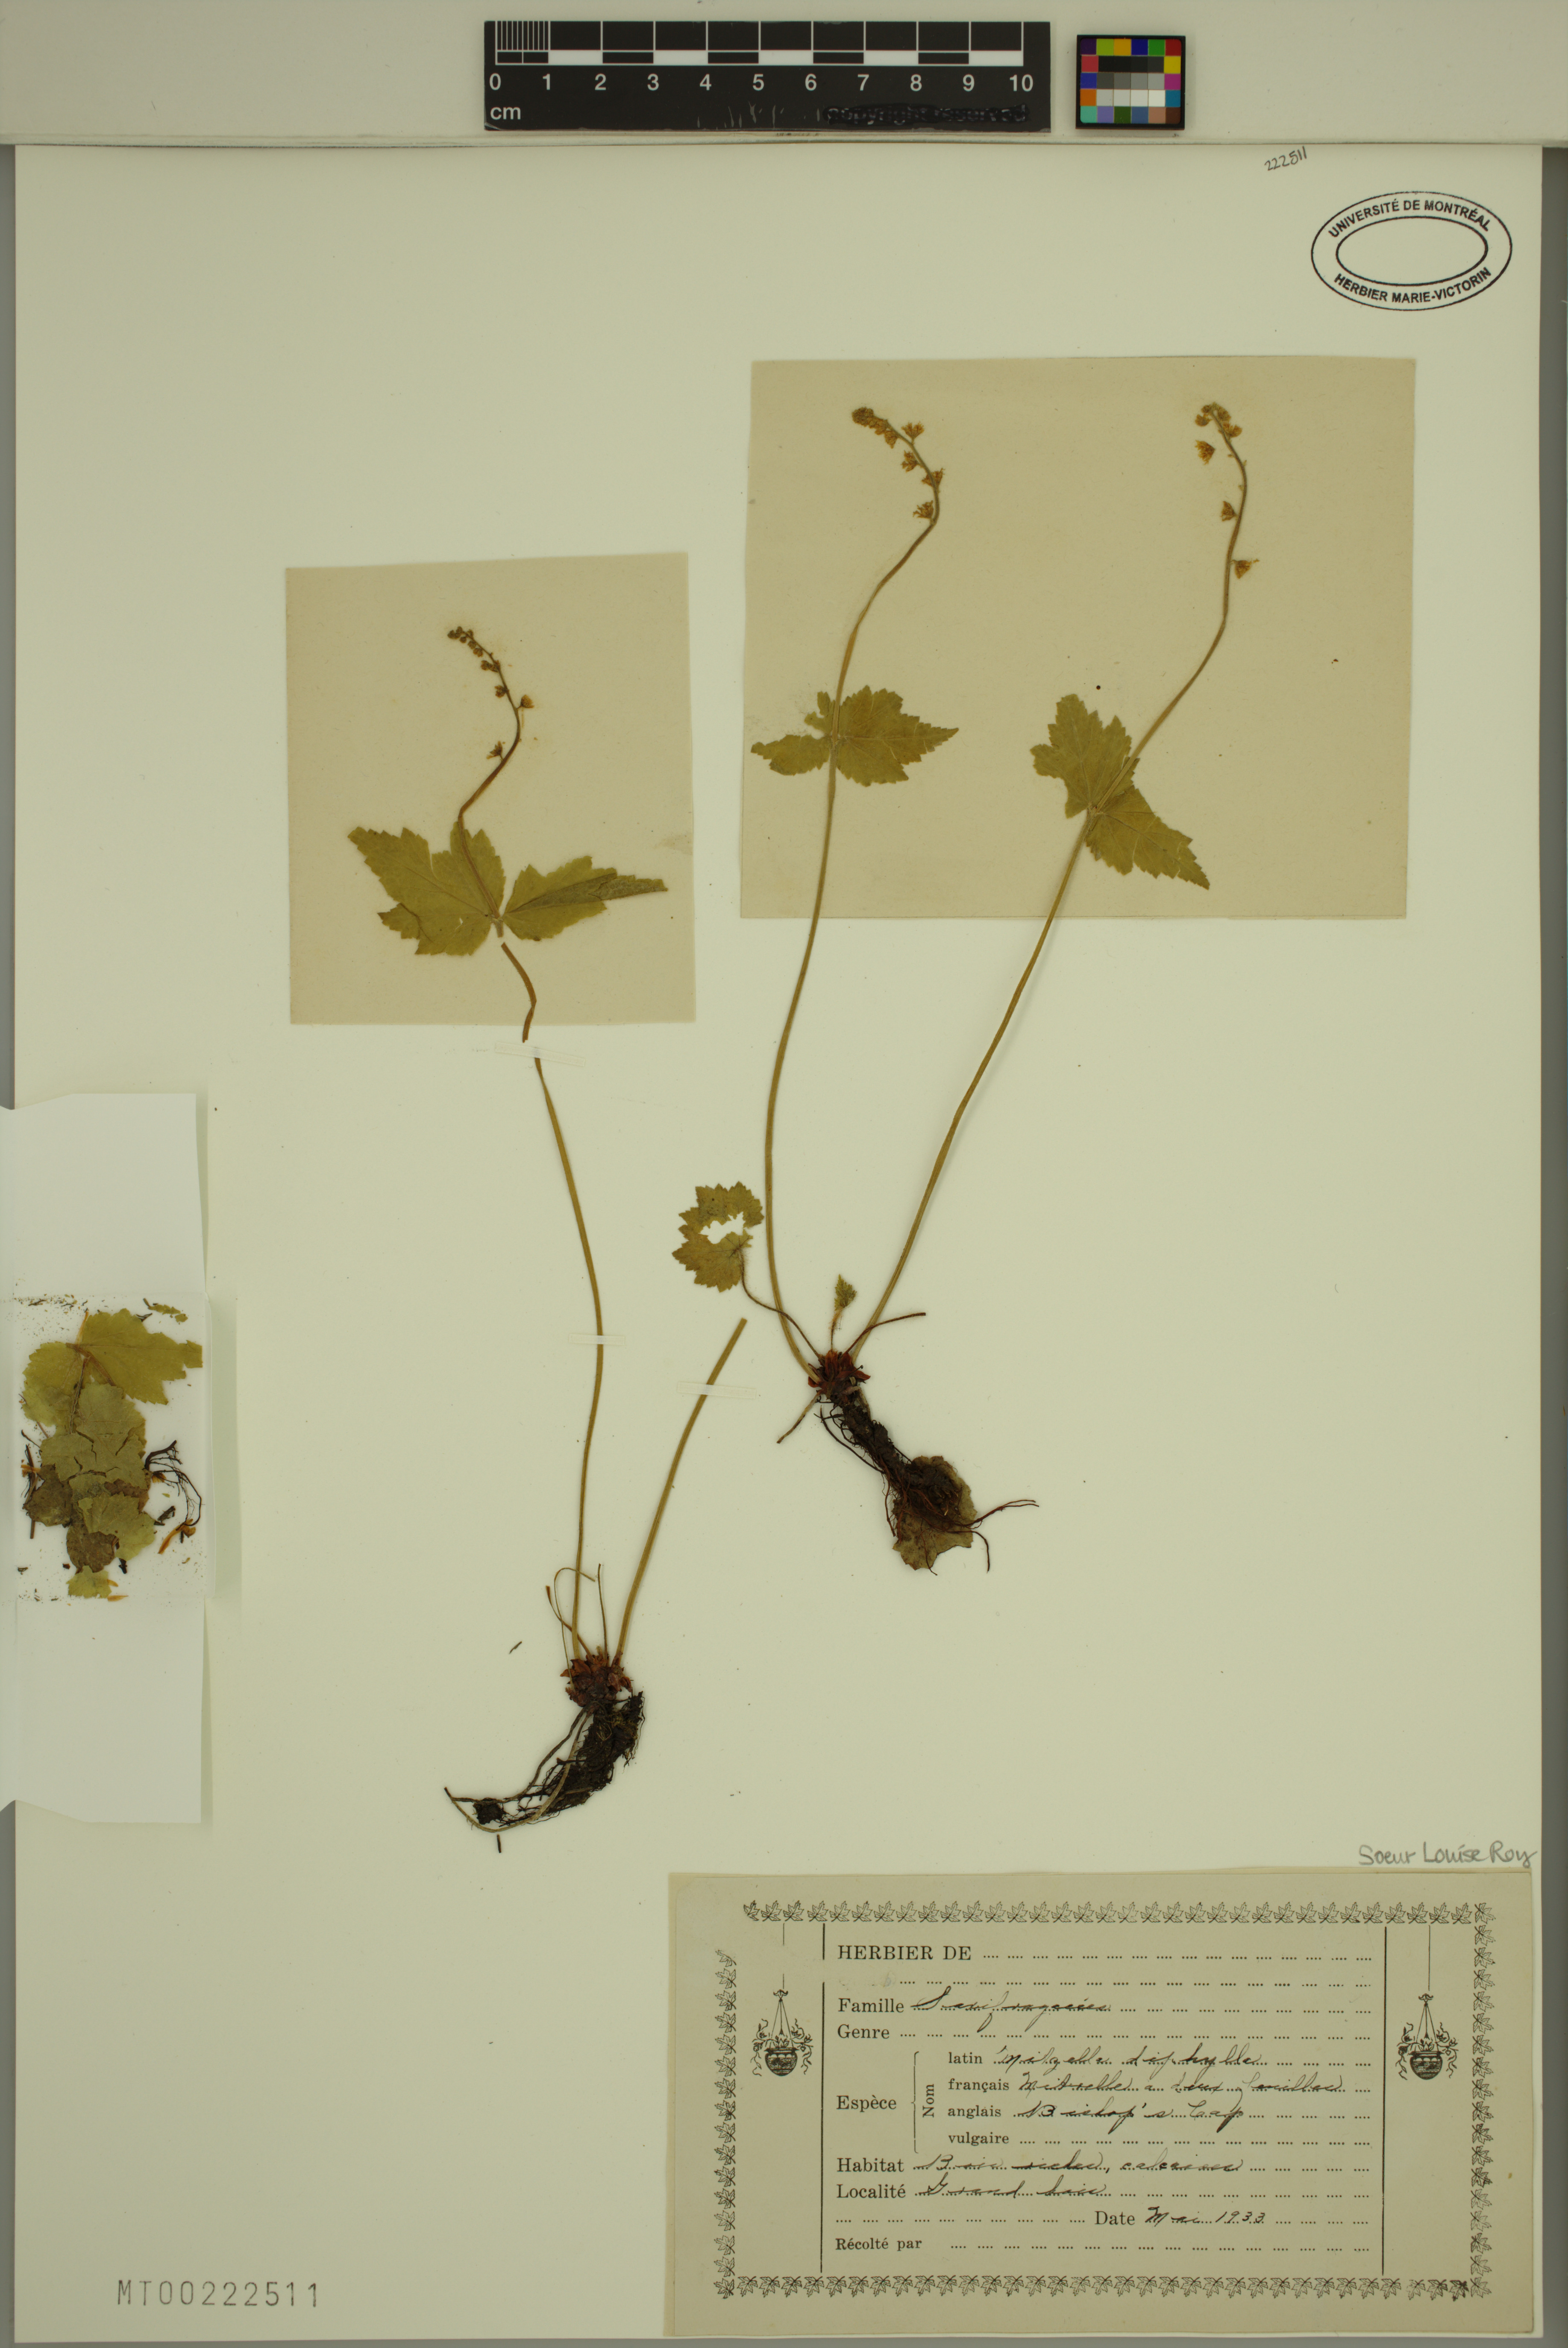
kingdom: Plantae
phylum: Tracheophyta
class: Magnoliopsida
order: Saxifragales
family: Saxifragaceae
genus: Mitella
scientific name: Mitella diphylla
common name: Coolwort
